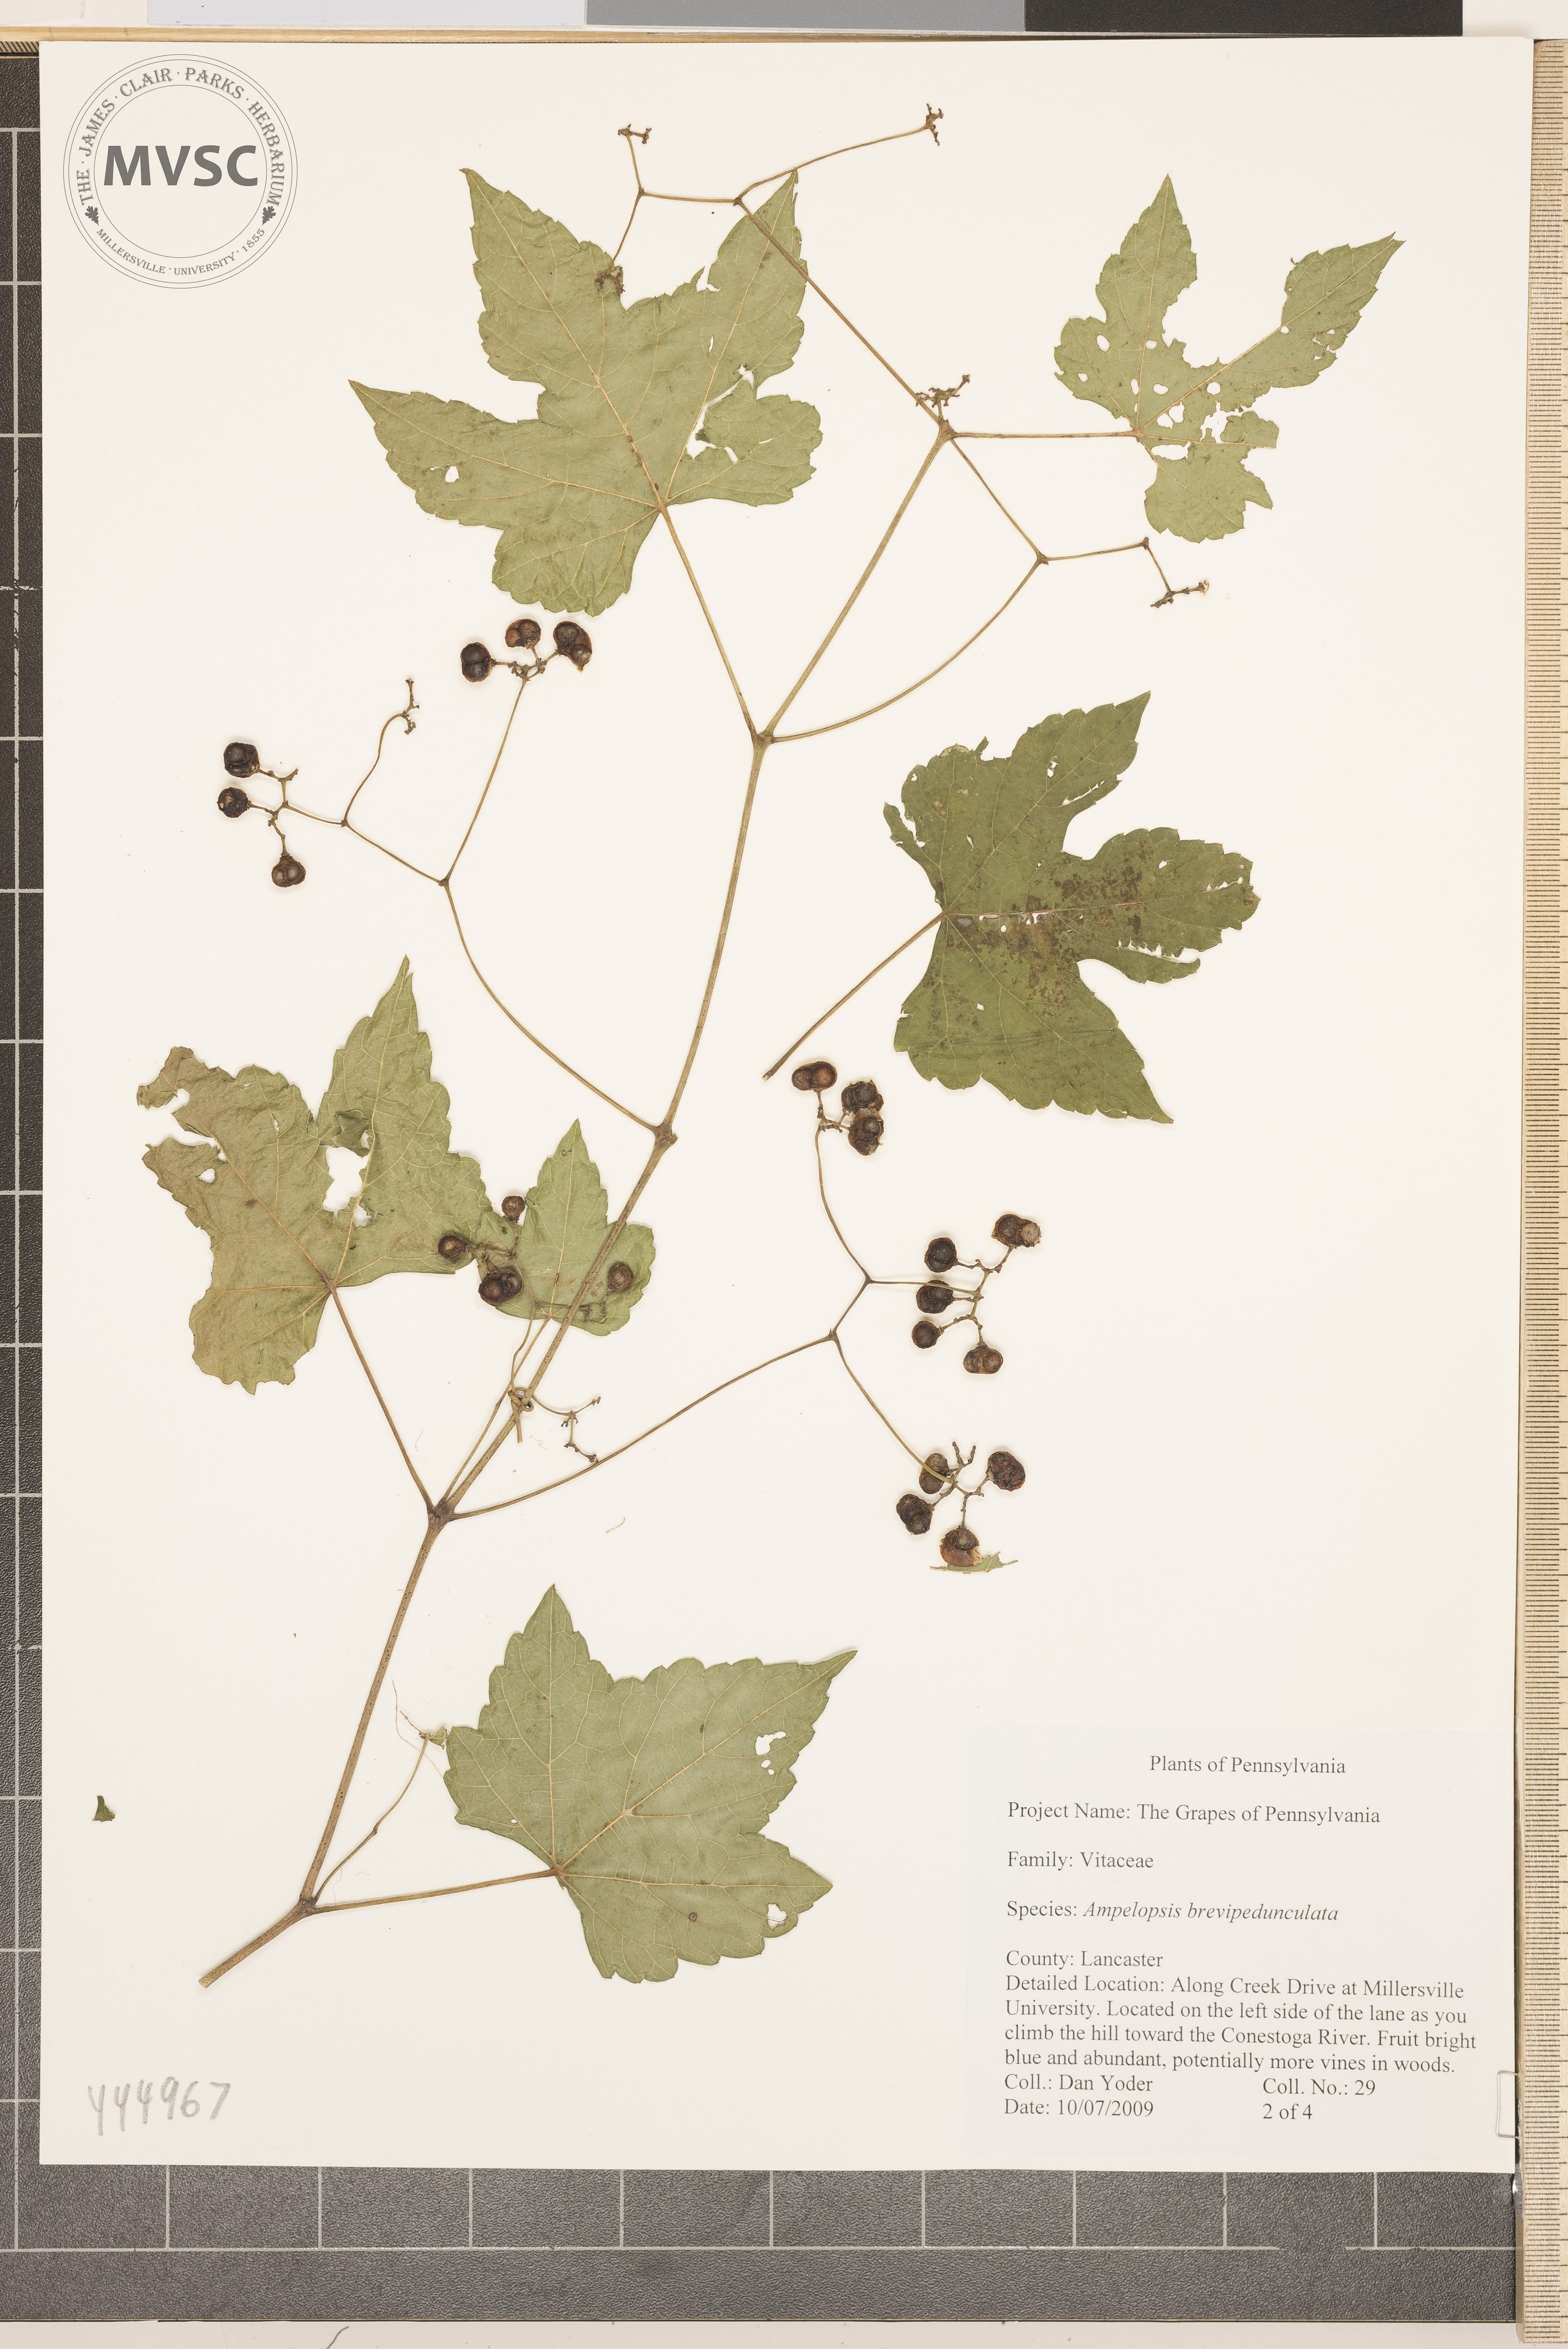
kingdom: Plantae
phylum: Tracheophyta
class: Magnoliopsida
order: Vitales
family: Vitaceae
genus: Ampelopsis
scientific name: Ampelopsis brevipedunculata
